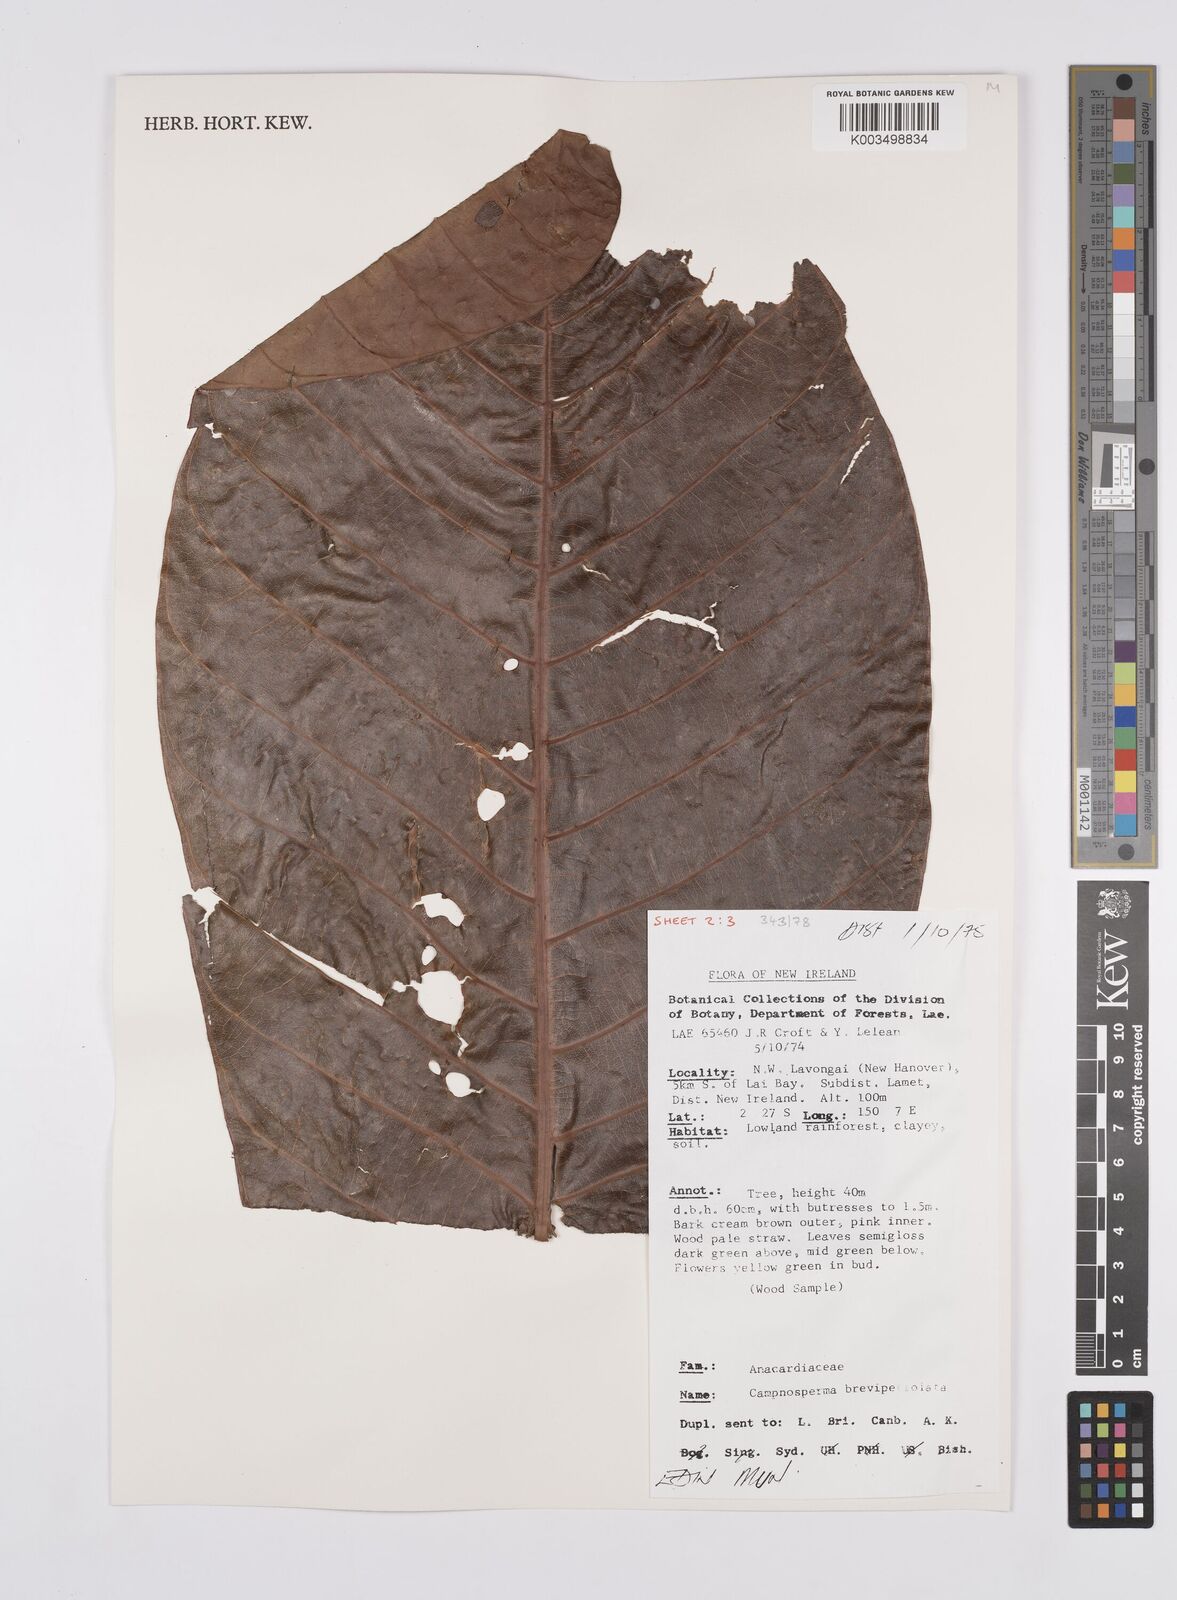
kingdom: Plantae
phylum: Tracheophyta
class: Magnoliopsida
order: Sapindales
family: Anacardiaceae
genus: Campnosperma
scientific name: Campnosperma brevipetiolatum
